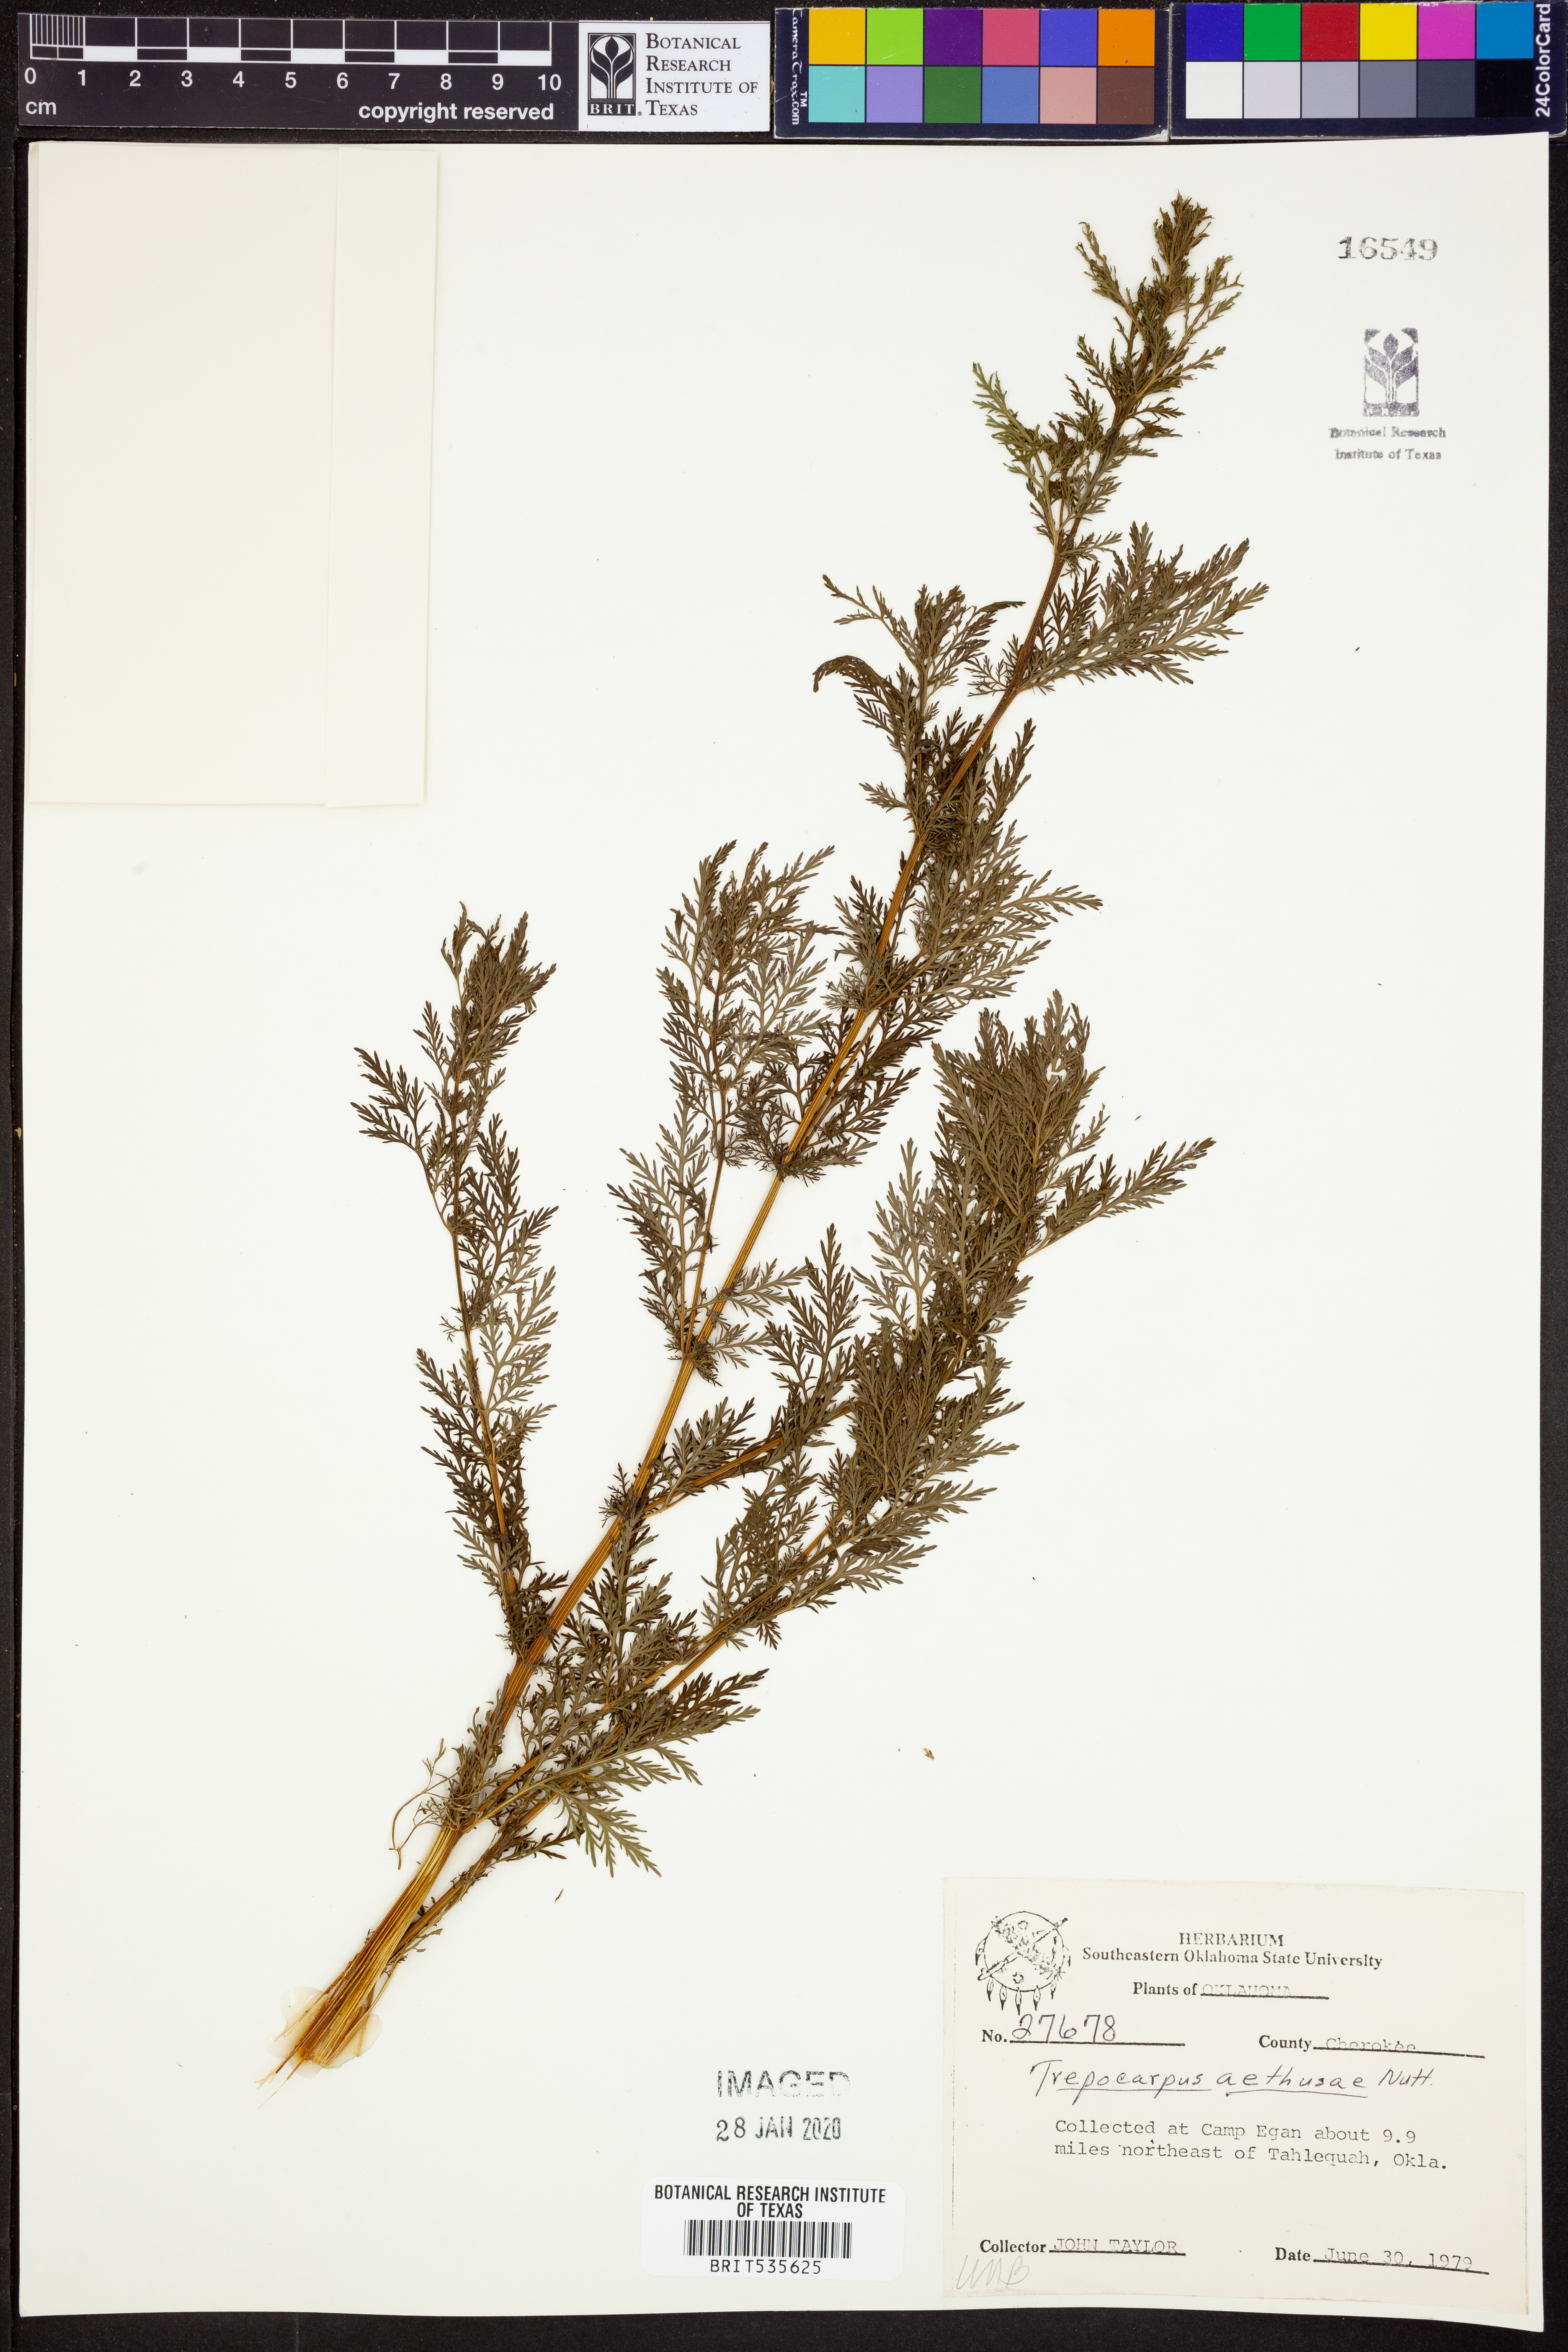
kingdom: Plantae
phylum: Tracheophyta
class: Magnoliopsida
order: Apiales
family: Apiaceae
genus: Trepocarpus
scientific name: Trepocarpus aethusae
